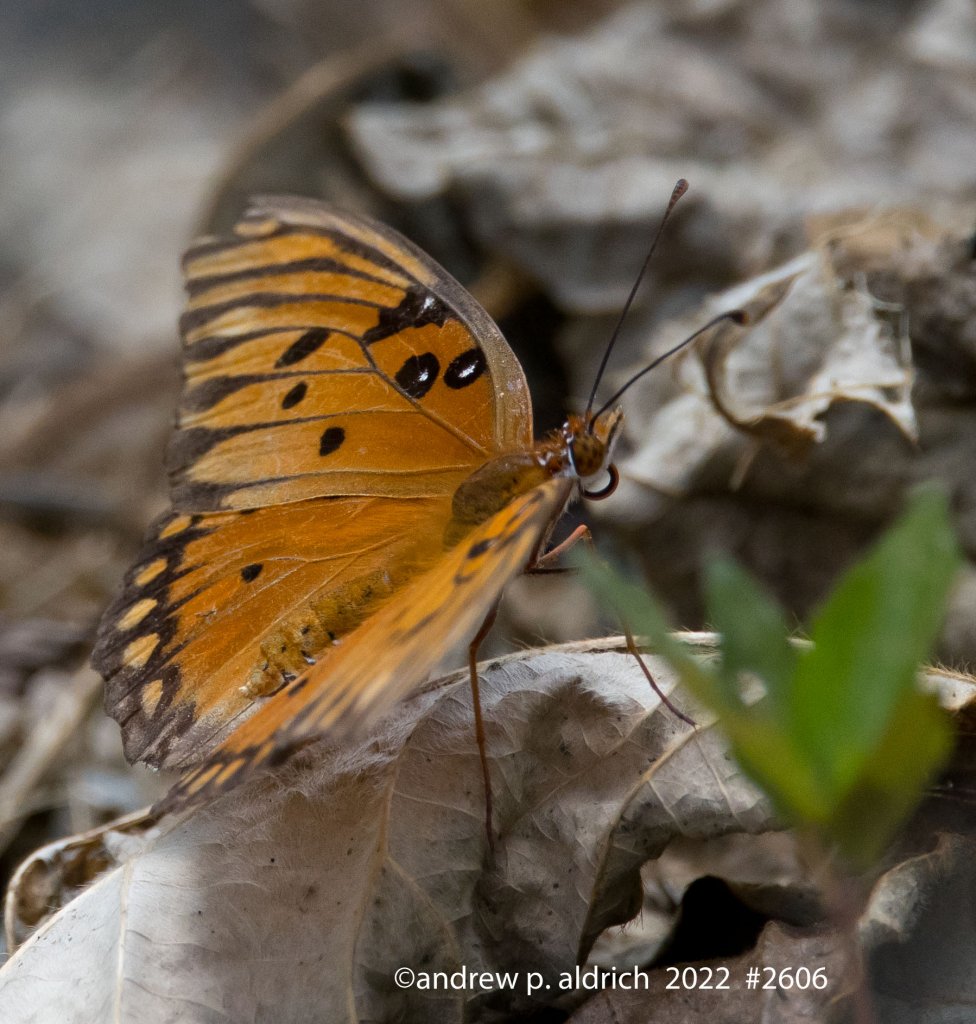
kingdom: Animalia
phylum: Arthropoda
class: Insecta
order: Lepidoptera
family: Nymphalidae
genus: Dione
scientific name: Dione vanillae
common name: Gulf Fritillary
